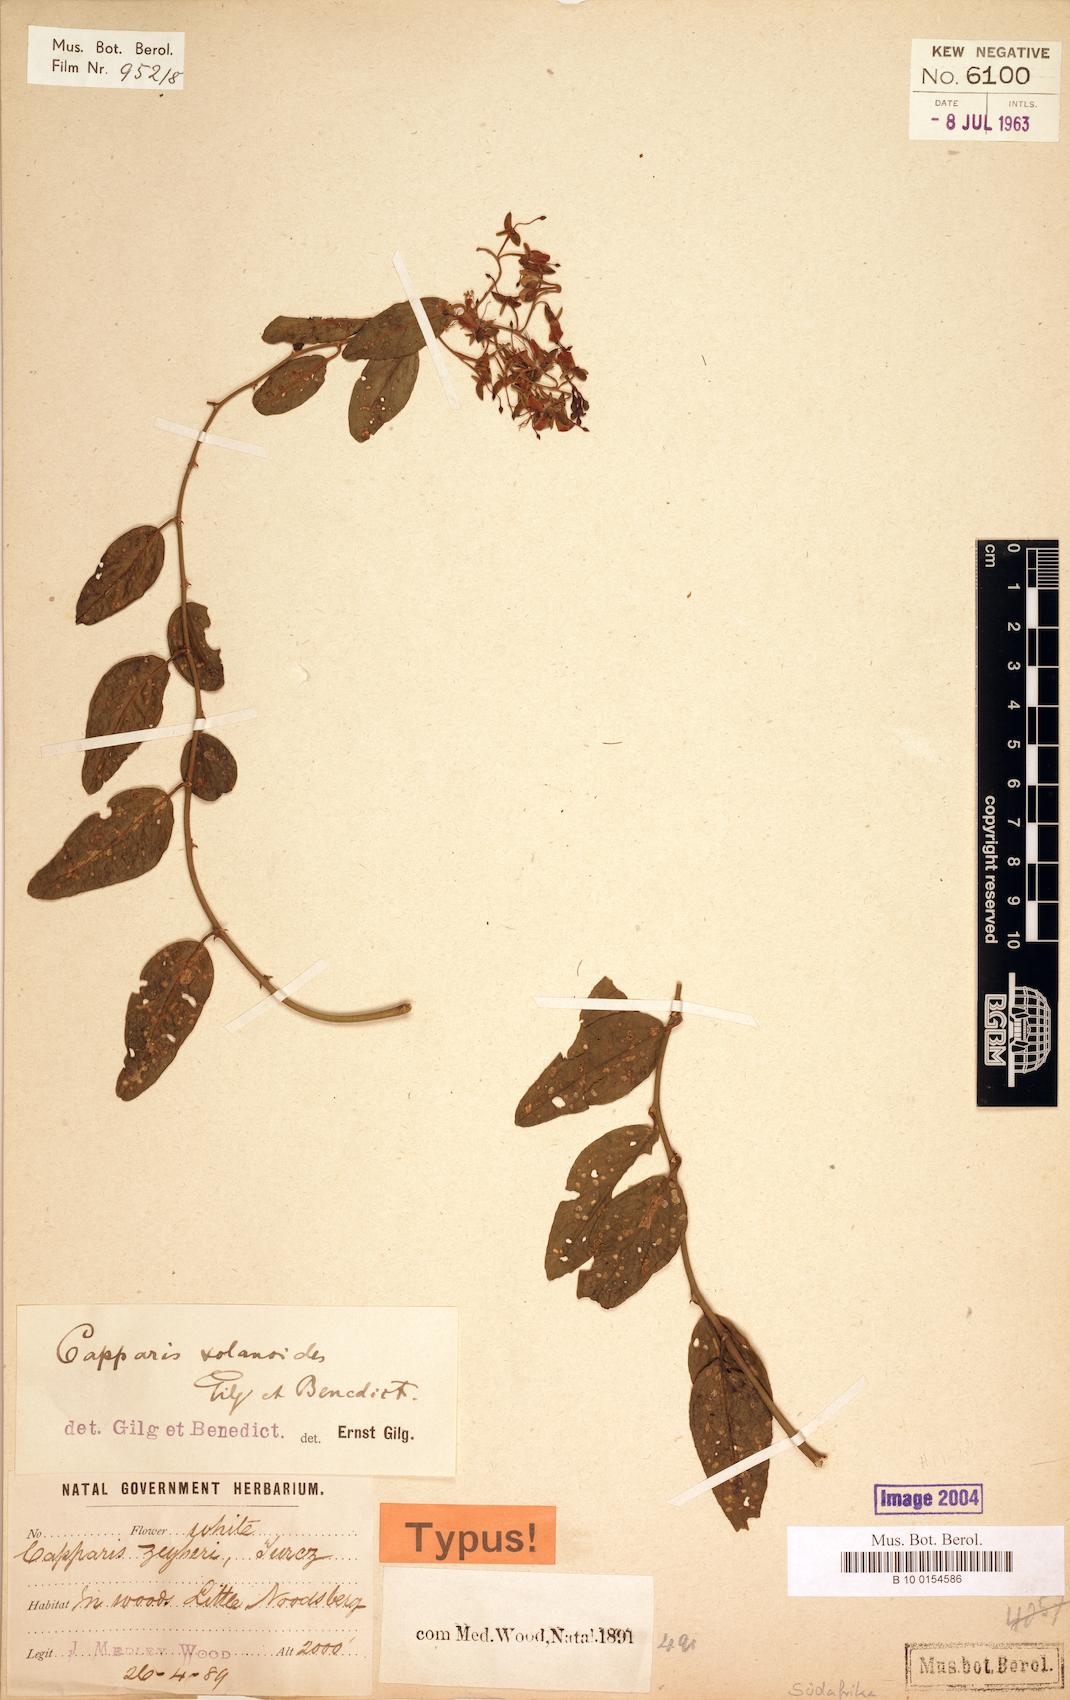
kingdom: Plantae
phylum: Tracheophyta
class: Magnoliopsida
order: Brassicales
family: Capparaceae
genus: Capparis
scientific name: Capparis fascicularis
